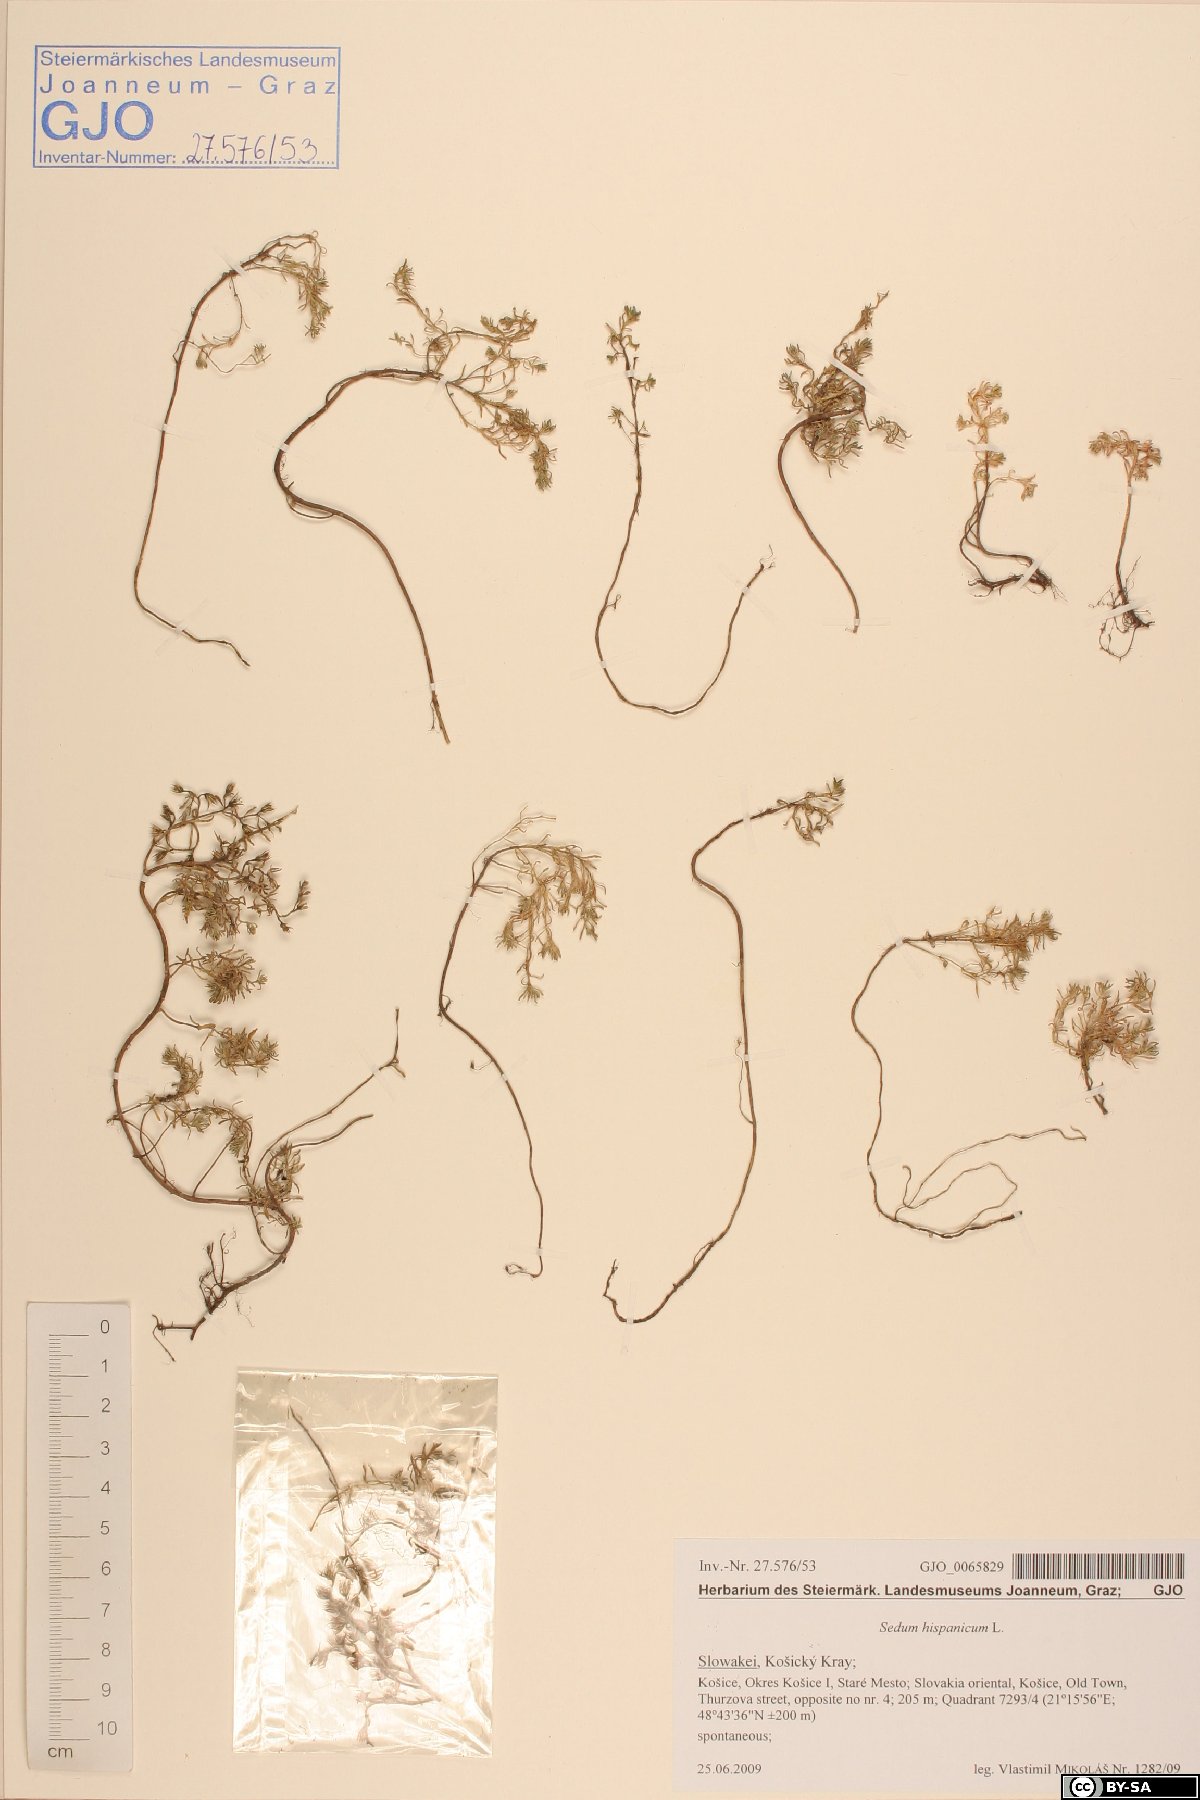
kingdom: Plantae
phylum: Tracheophyta
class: Magnoliopsida
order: Saxifragales
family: Crassulaceae
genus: Sedum
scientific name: Sedum hispanicum
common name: Spanish stonecrop
